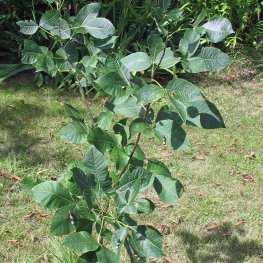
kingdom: Animalia
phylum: Arthropoda
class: Insecta
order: Lepidoptera
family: Papilionidae
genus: Papilio
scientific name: Papilio cresphontes
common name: Eastern Giant Swallowtail
